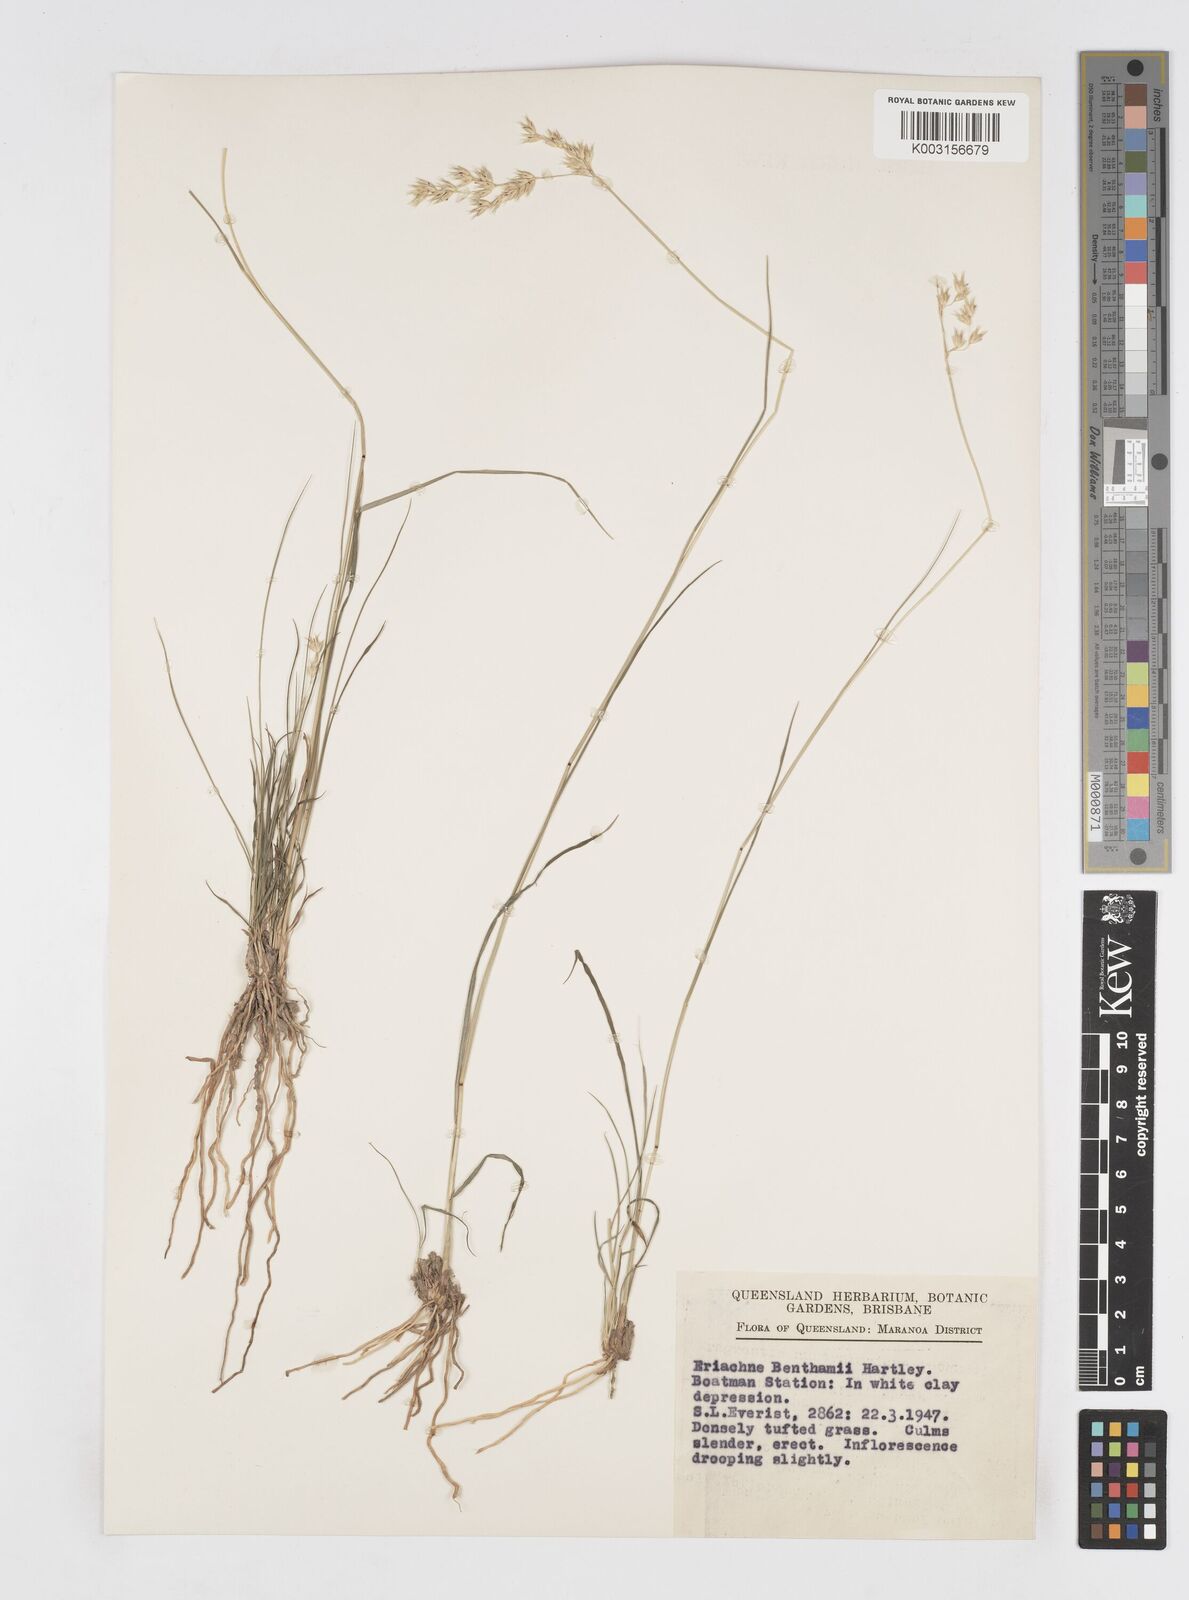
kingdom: Plantae
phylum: Tracheophyta
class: Liliopsida
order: Poales
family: Poaceae
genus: Eriachne
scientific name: Eriachne benthamii
